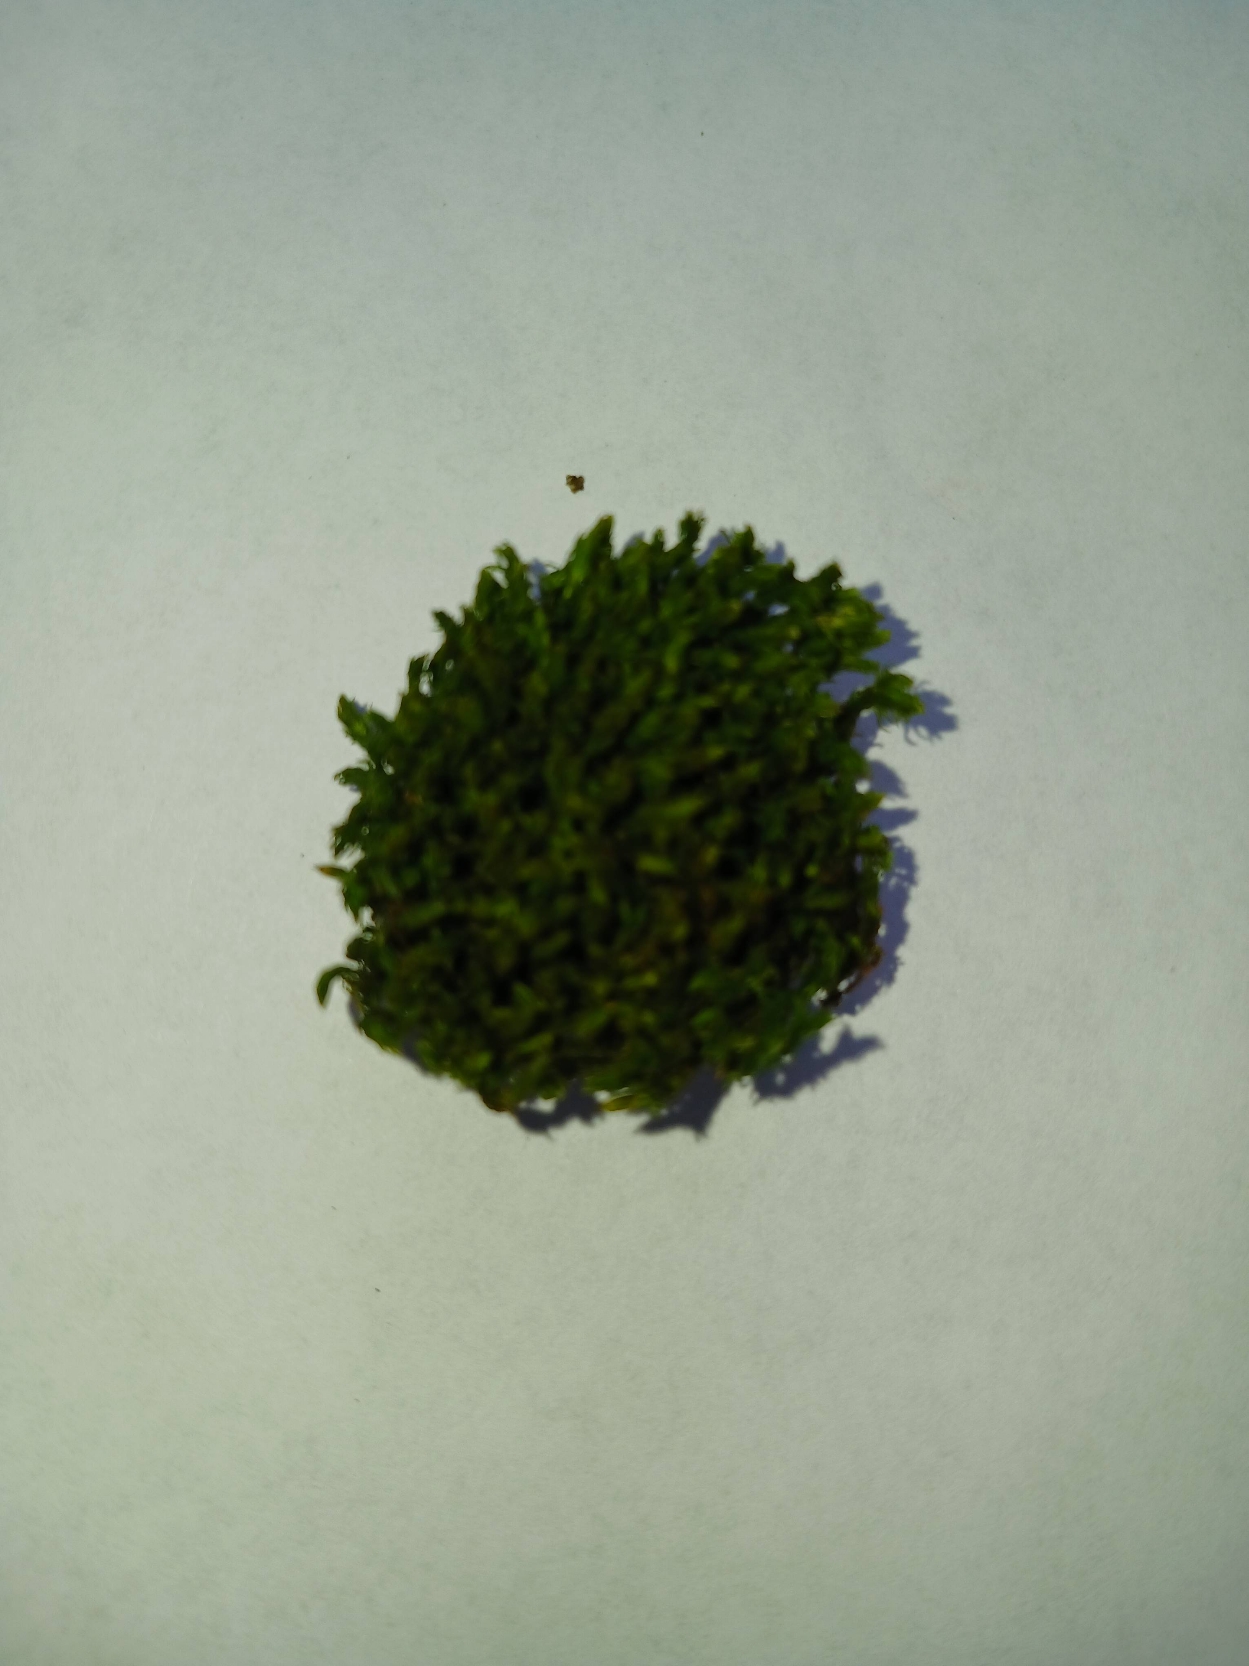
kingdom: Plantae
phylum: Bryophyta
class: Bryopsida
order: Orthotrichales
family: Orthotrichaceae
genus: Lewinskya
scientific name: Lewinskya affinis
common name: Almindelig furehætte
